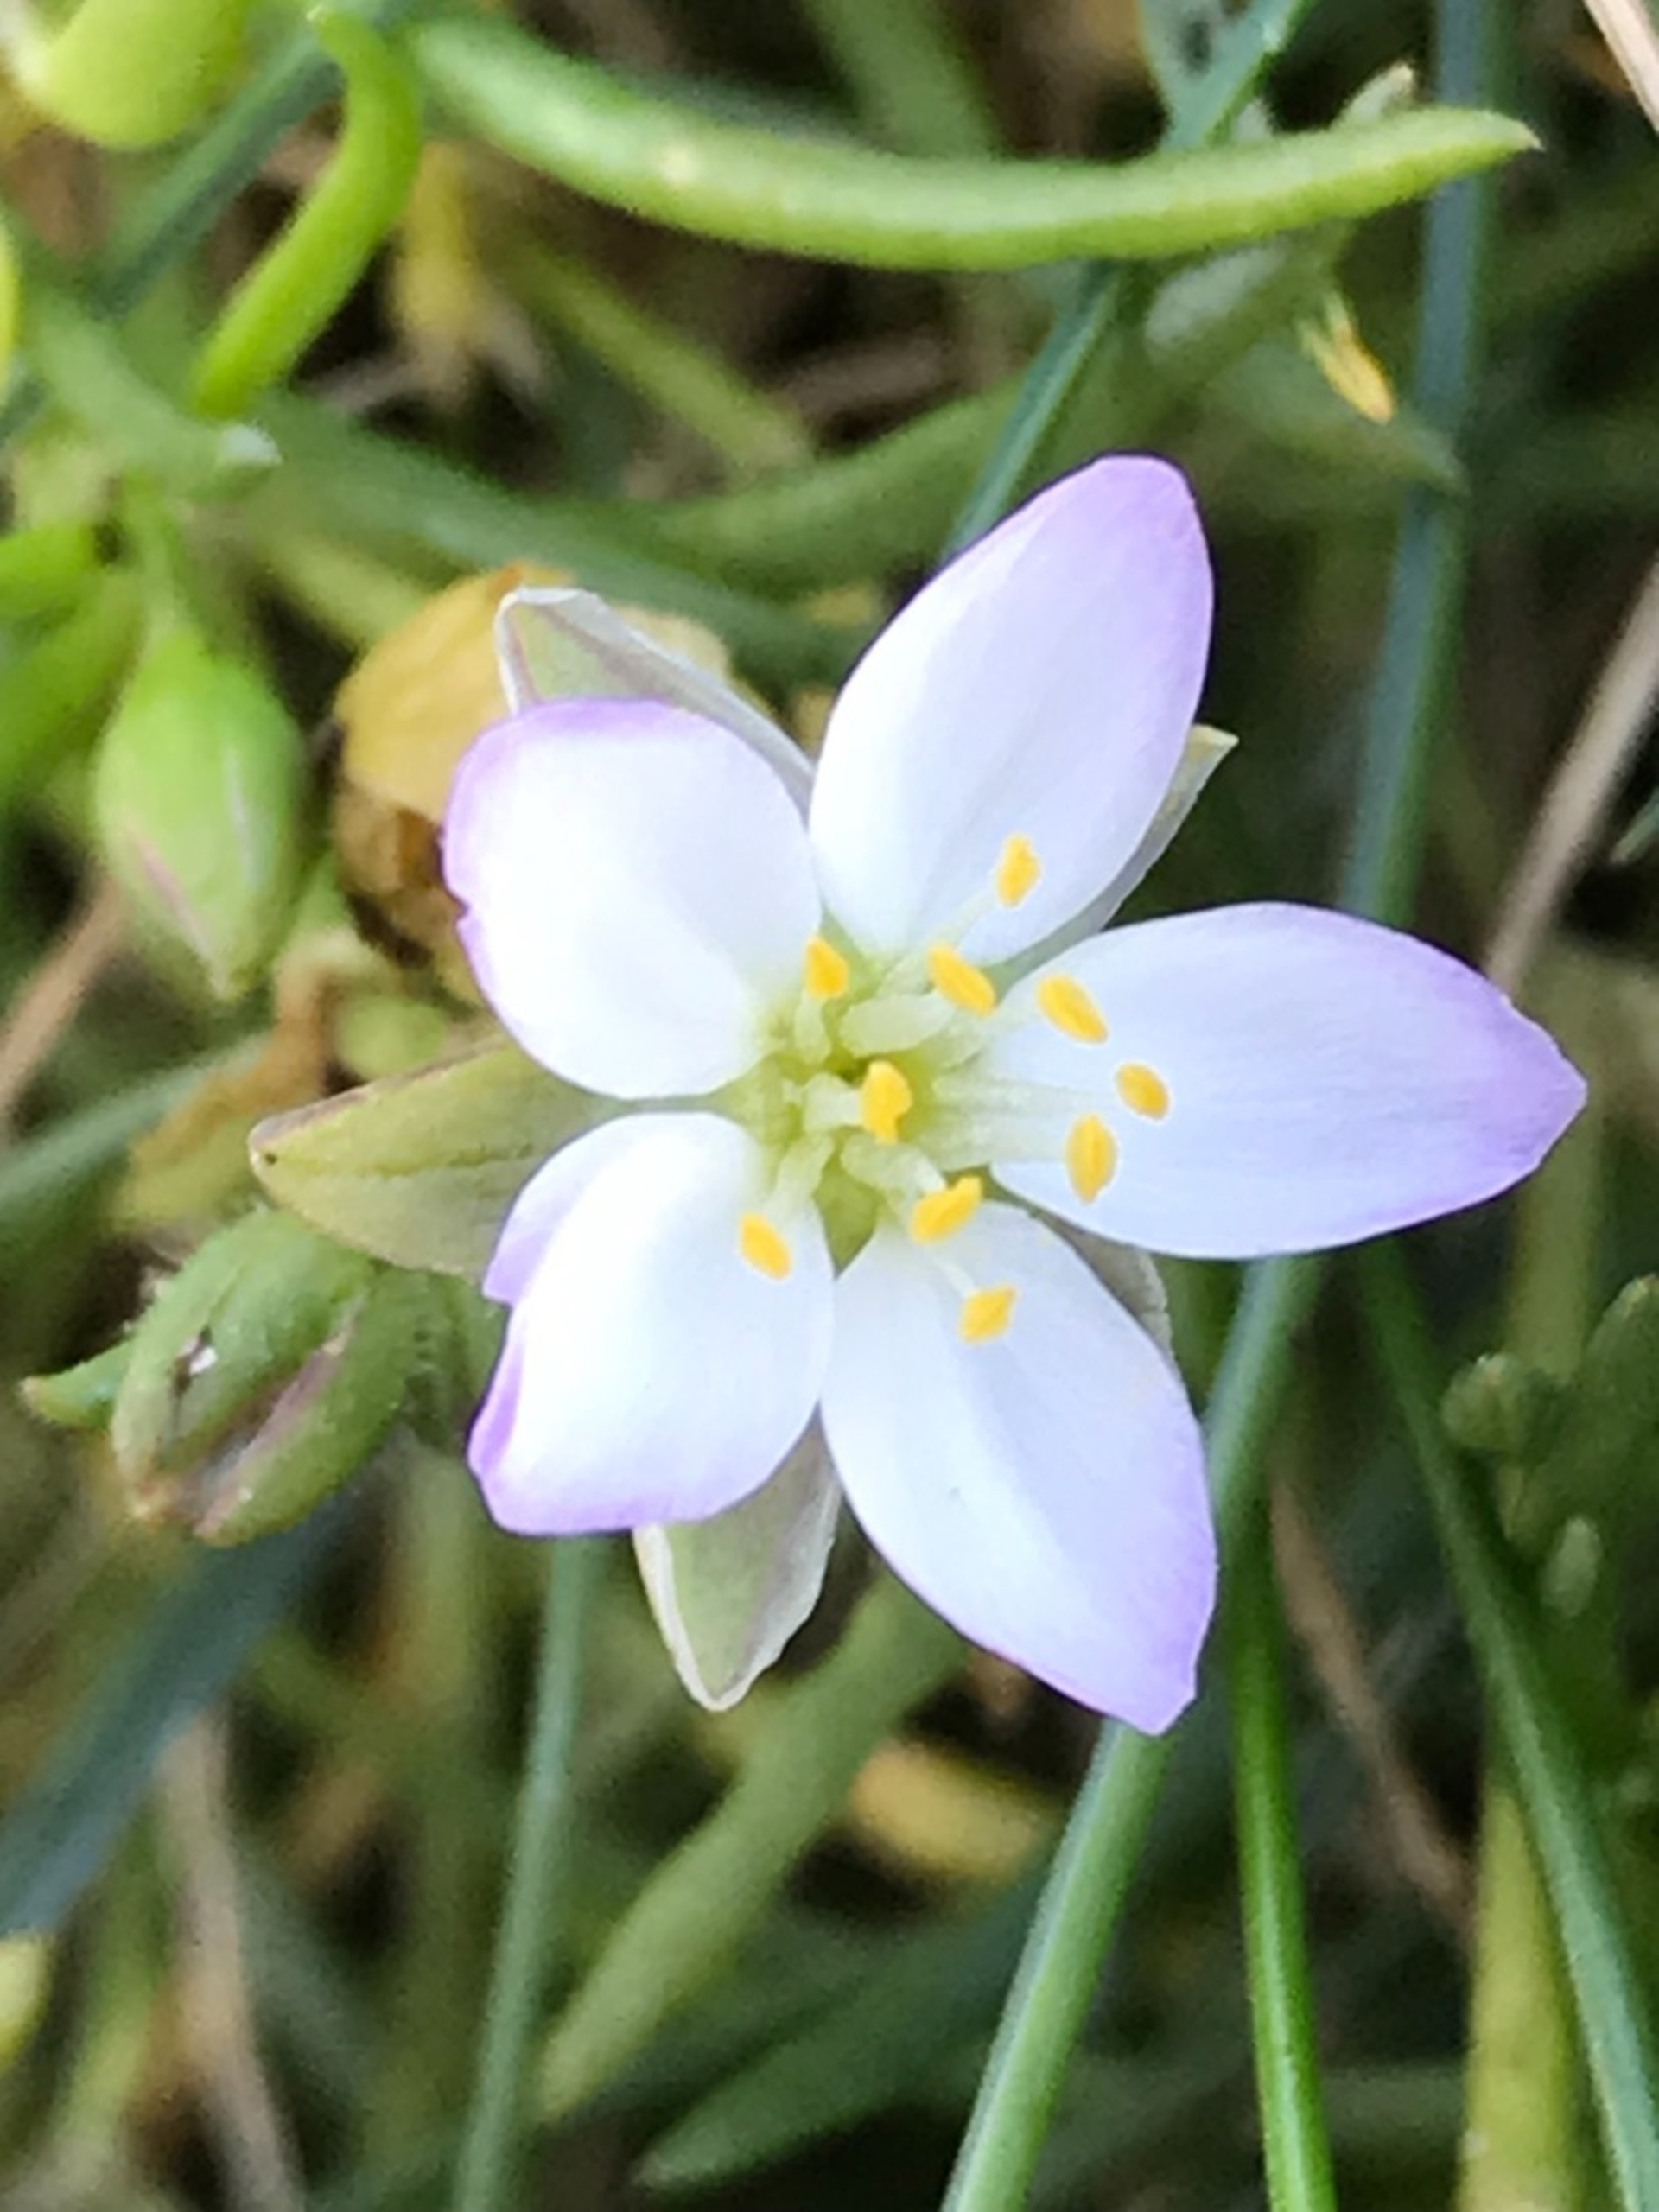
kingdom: Plantae
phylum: Tracheophyta
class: Magnoliopsida
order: Caryophyllales
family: Caryophyllaceae
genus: Spergularia
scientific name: Spergularia media
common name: Vingefrøet hindeknæ
